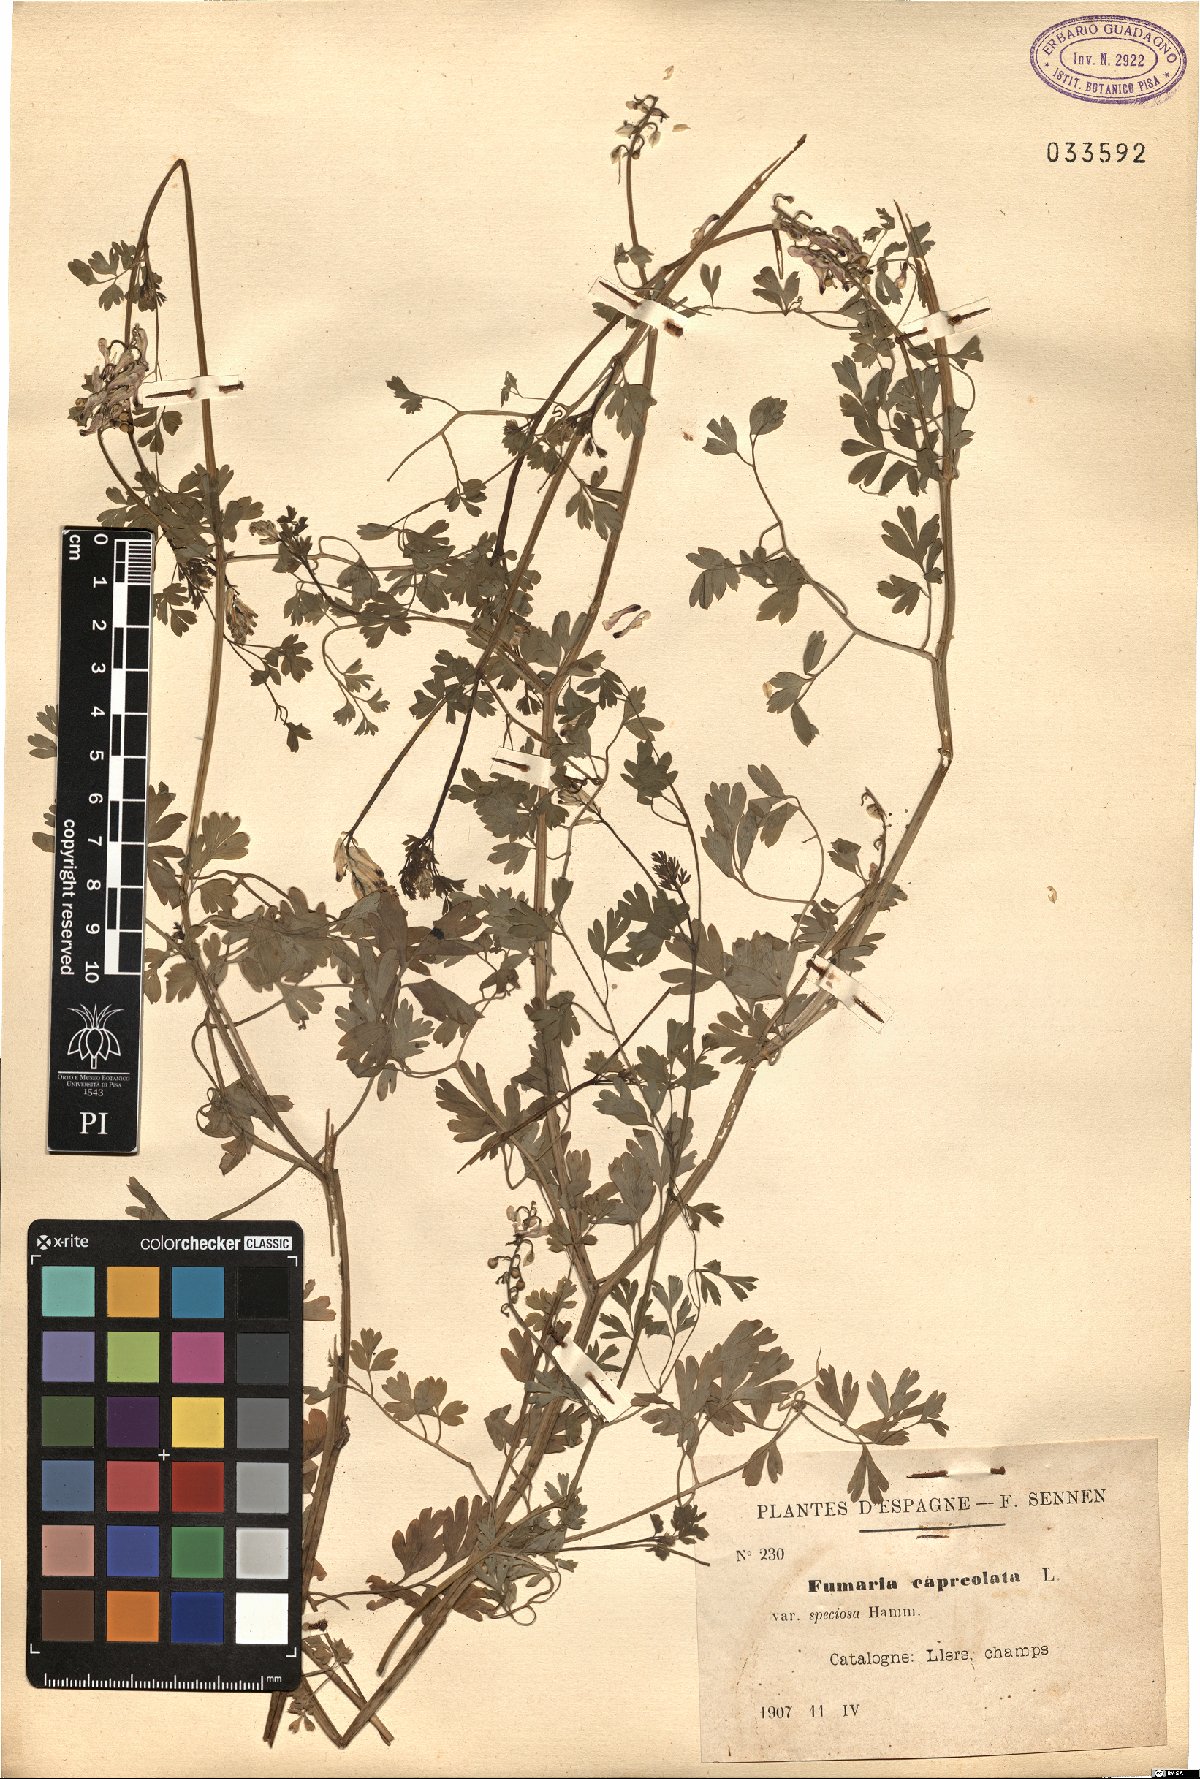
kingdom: Plantae
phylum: Tracheophyta
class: Magnoliopsida
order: Ranunculales
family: Papaveraceae
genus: Fumaria
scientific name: Fumaria capreolata
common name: White ramping-fumitory
